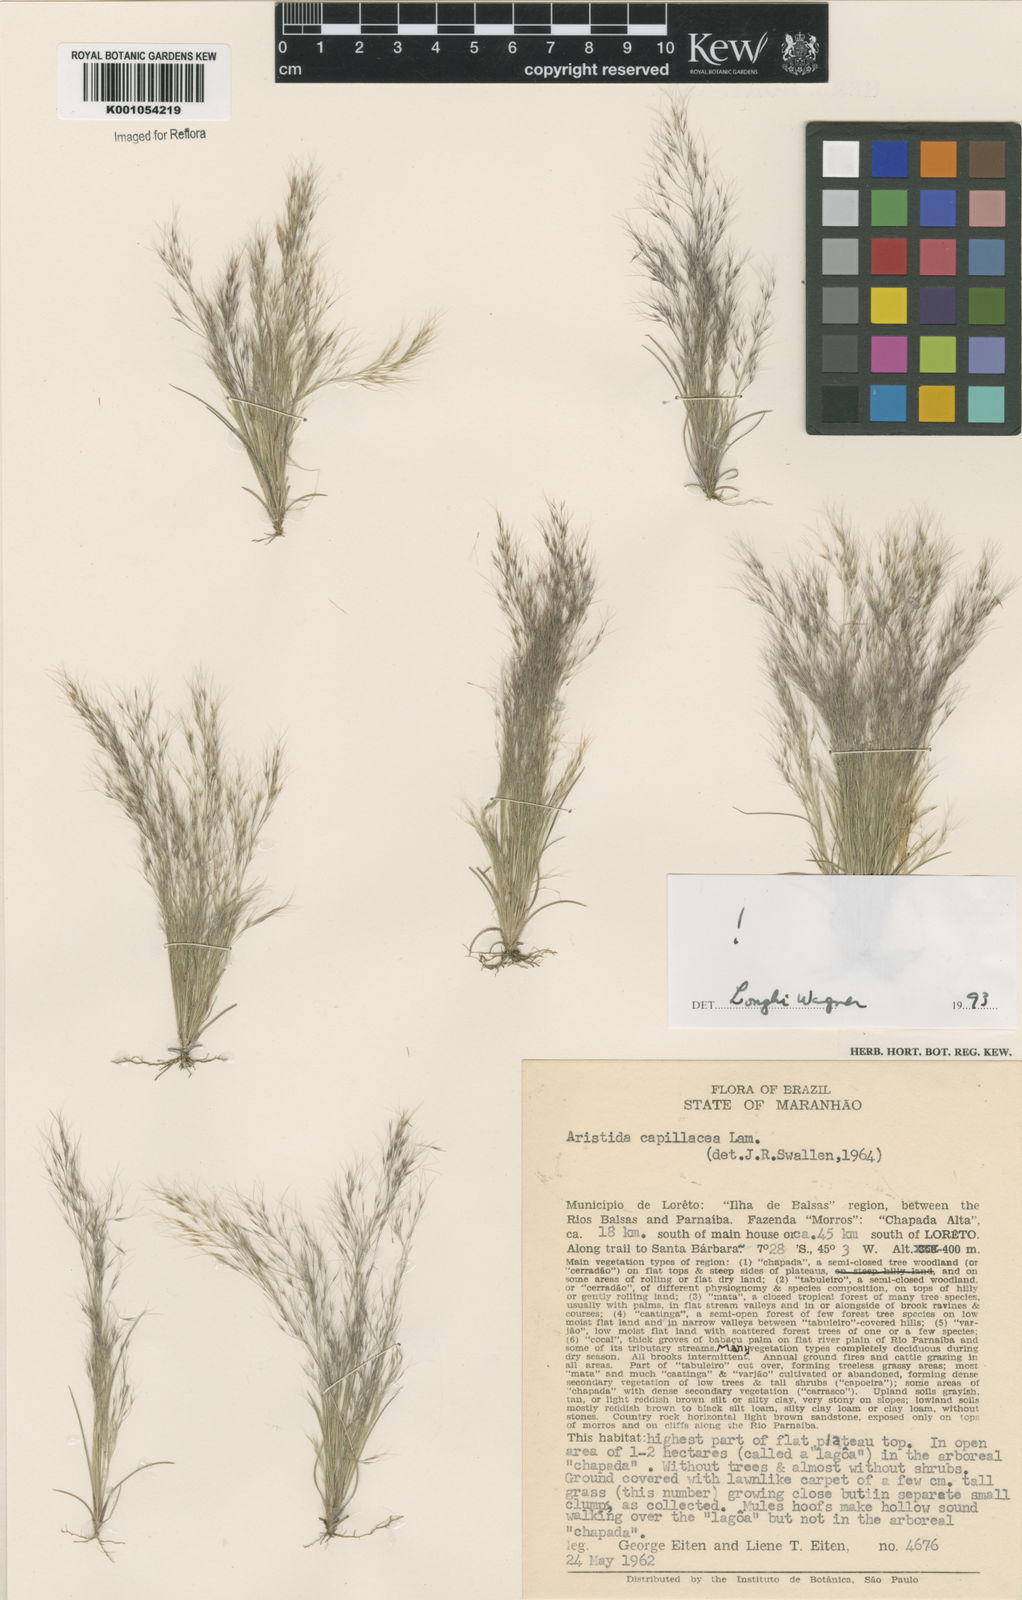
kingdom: Plantae
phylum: Tracheophyta
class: Liliopsida
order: Poales
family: Poaceae
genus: Aristida
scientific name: Aristida capillacea
